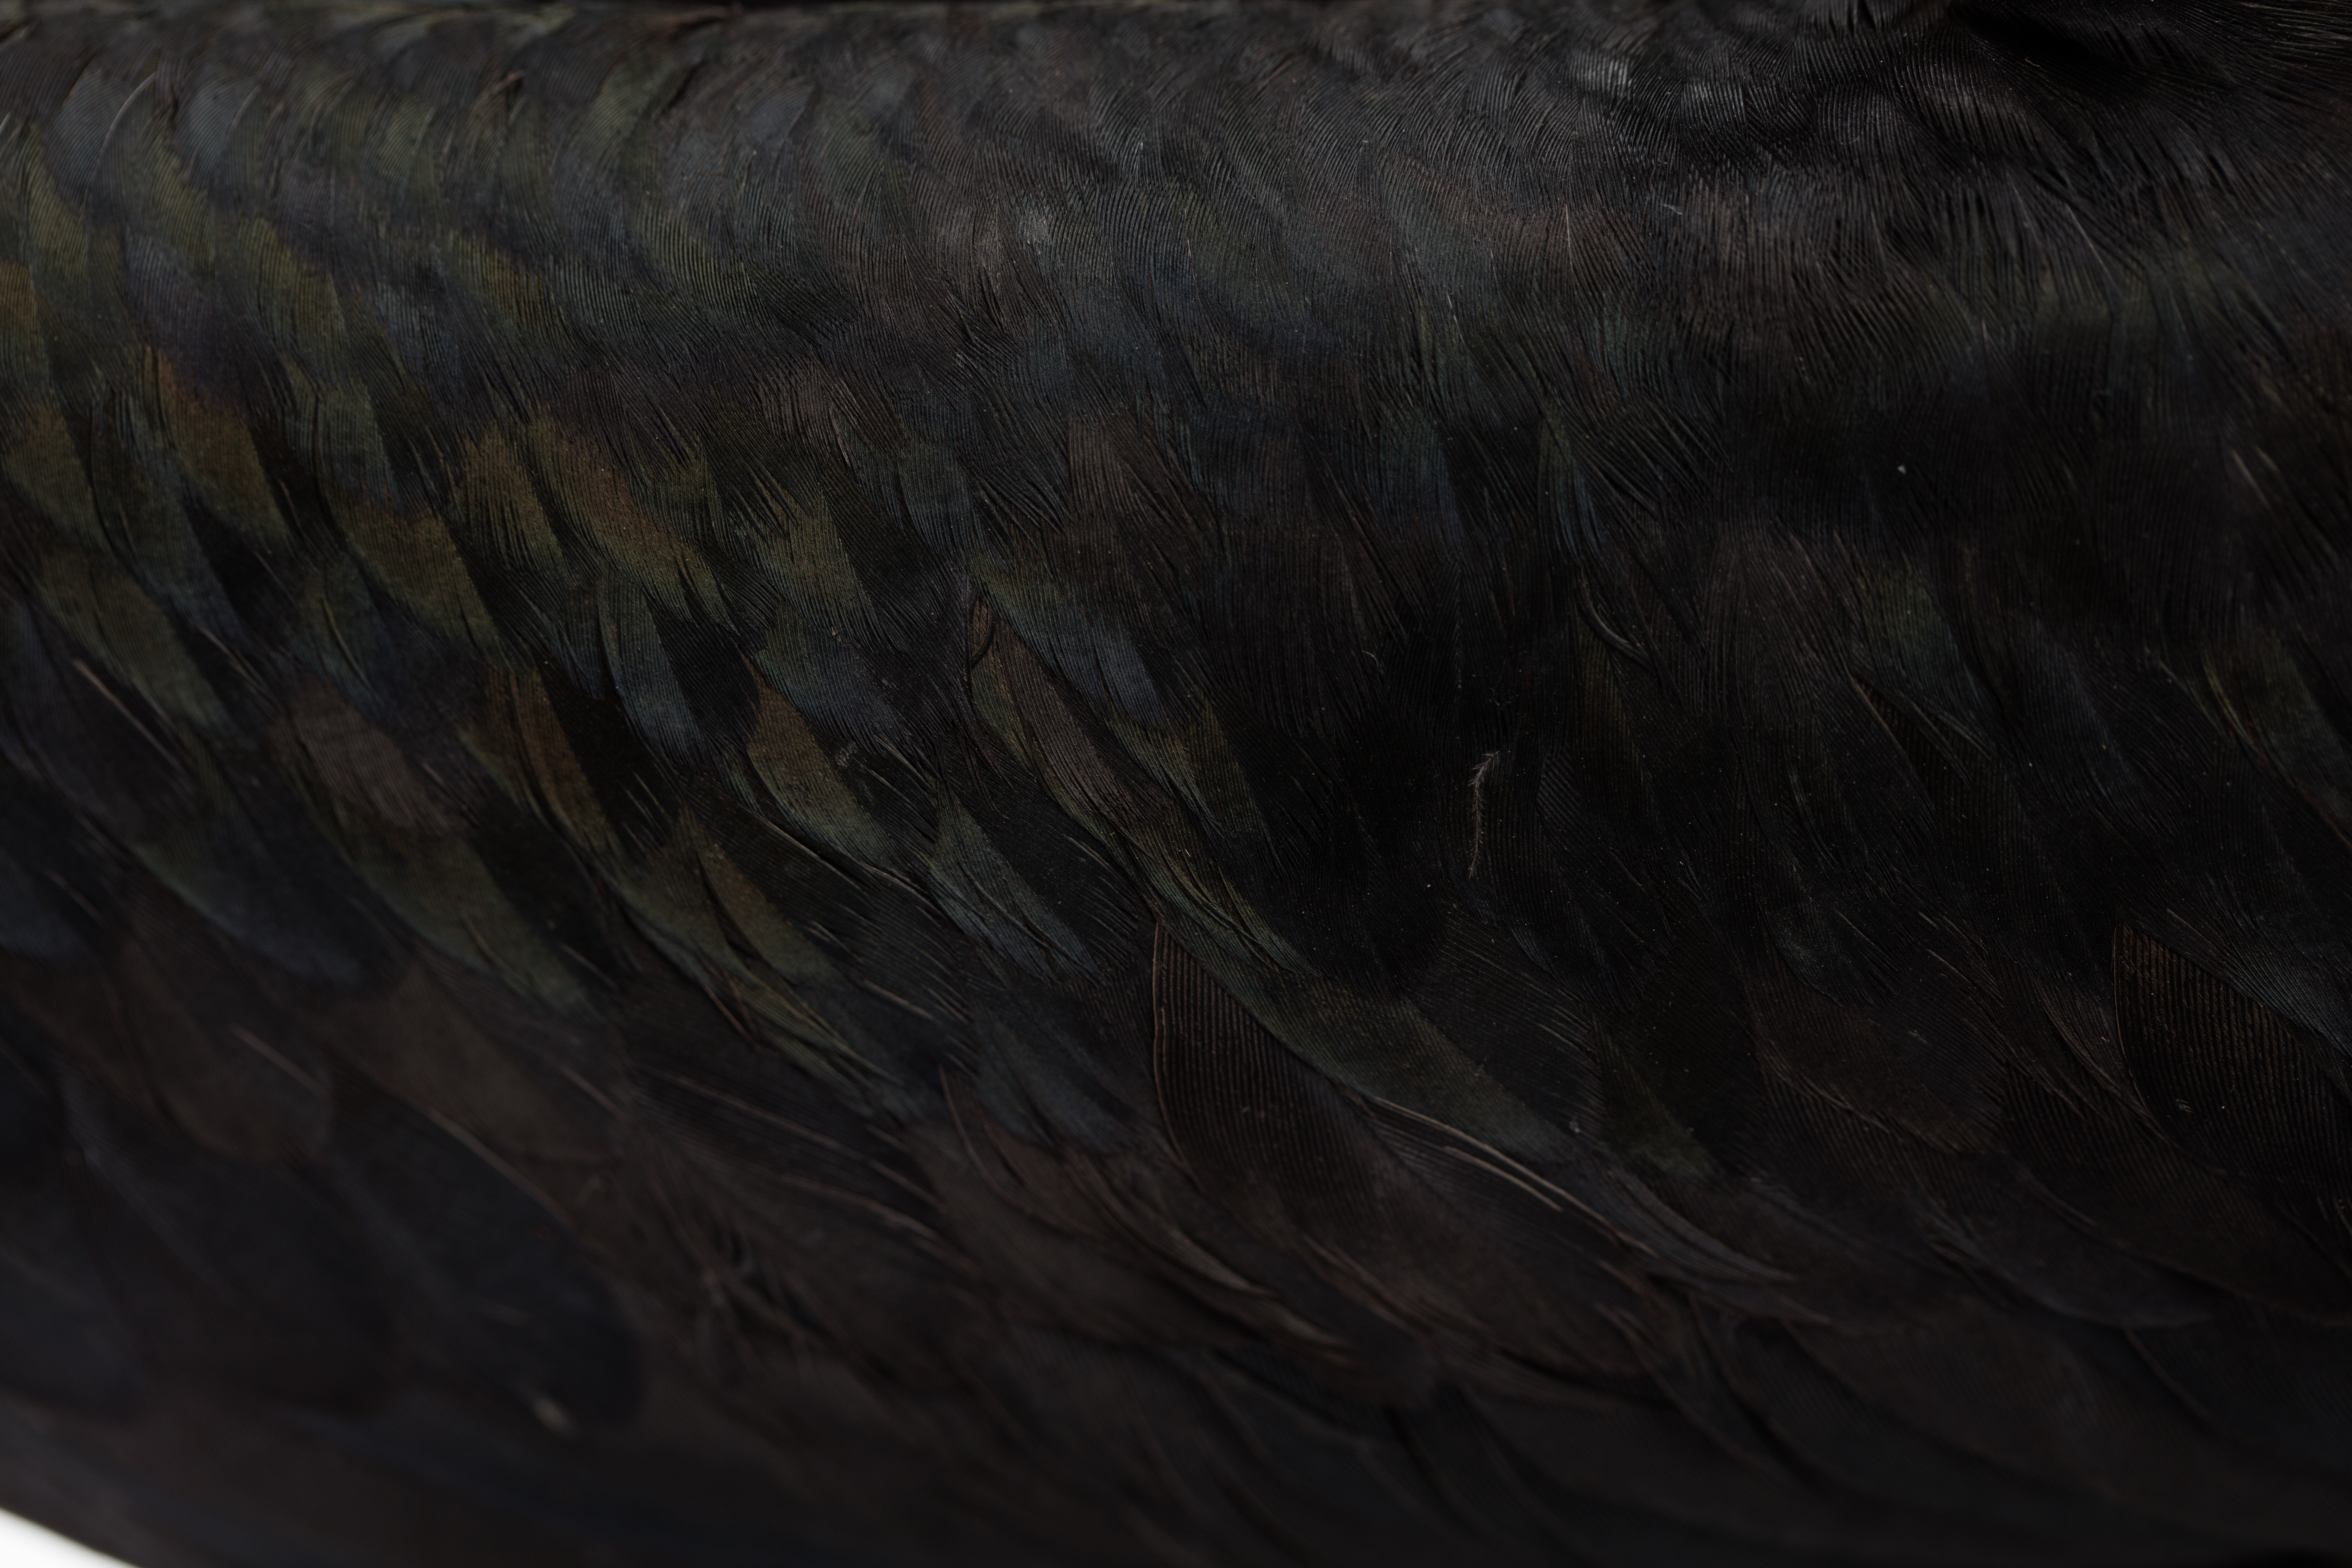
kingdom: Animalia
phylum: Chordata
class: Aves
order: Suliformes
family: Fregatidae
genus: Fregata
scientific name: Fregata ariel
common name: Lesser frigatebird
